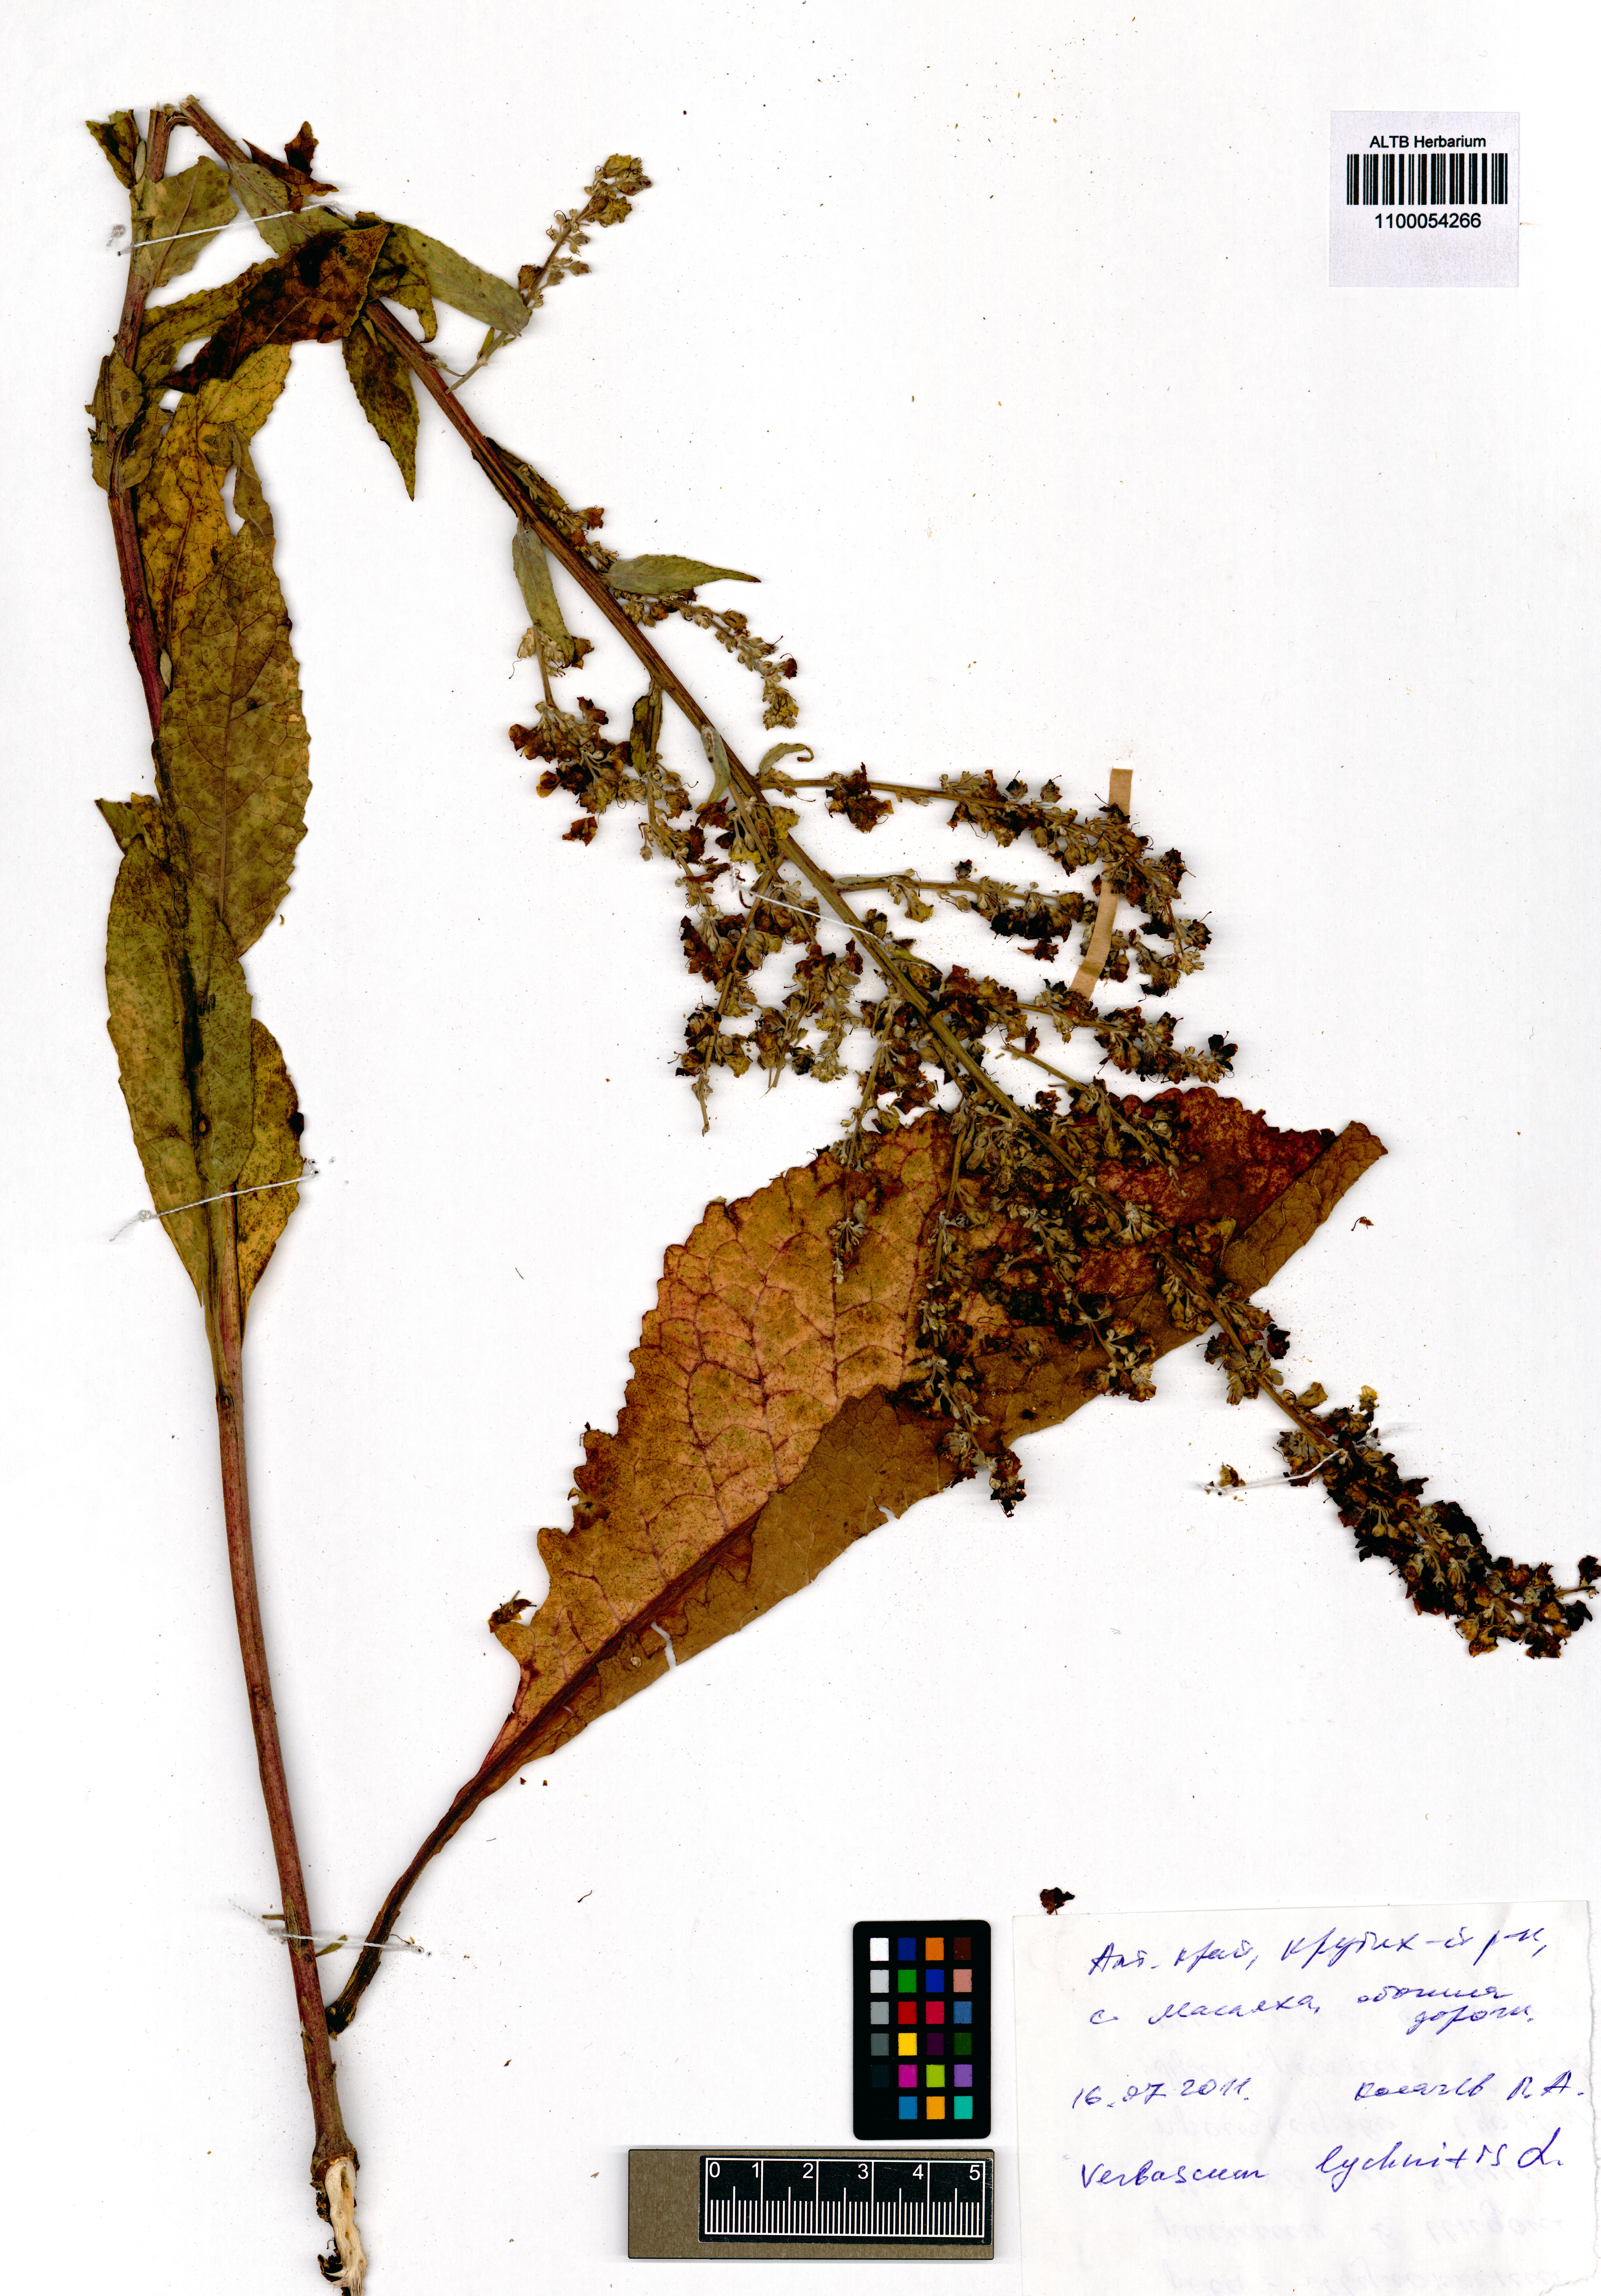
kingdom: Plantae
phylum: Tracheophyta
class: Magnoliopsida
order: Lamiales
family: Scrophulariaceae
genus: Verbascum
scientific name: Verbascum lychnitis
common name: White mullein
